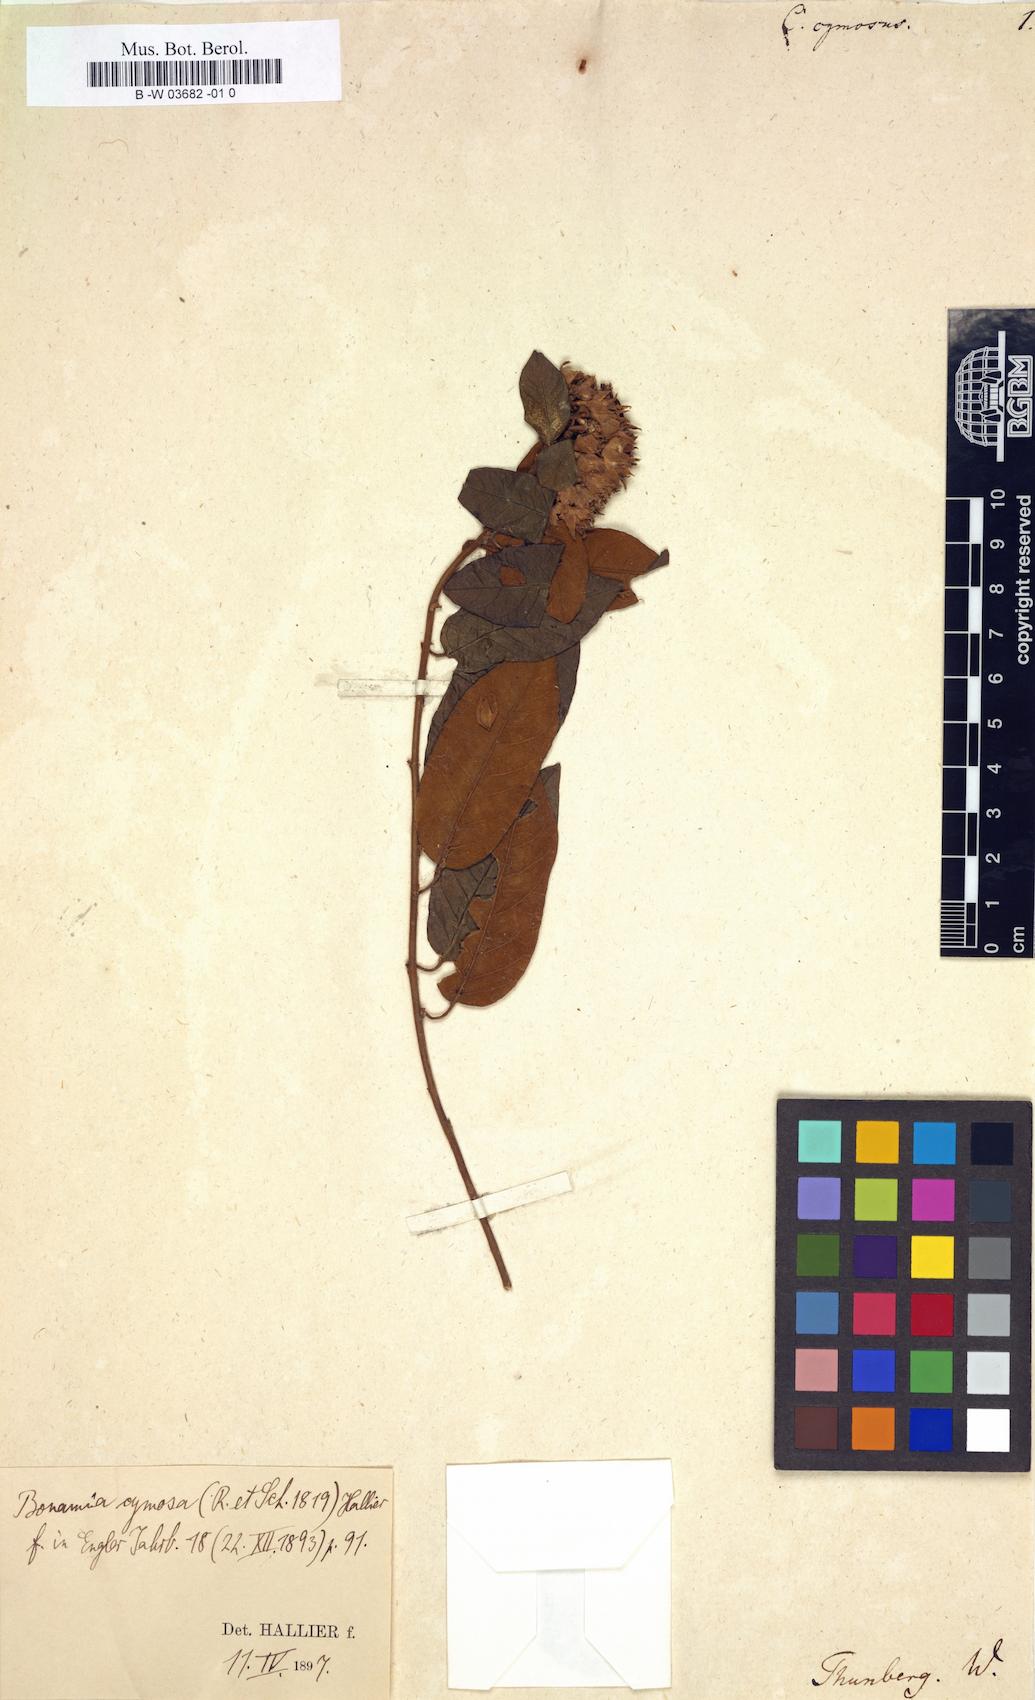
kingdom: Plantae
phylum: Tracheophyta
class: Magnoliopsida
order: Solanales
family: Convolvulaceae
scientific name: Convolvulaceae
